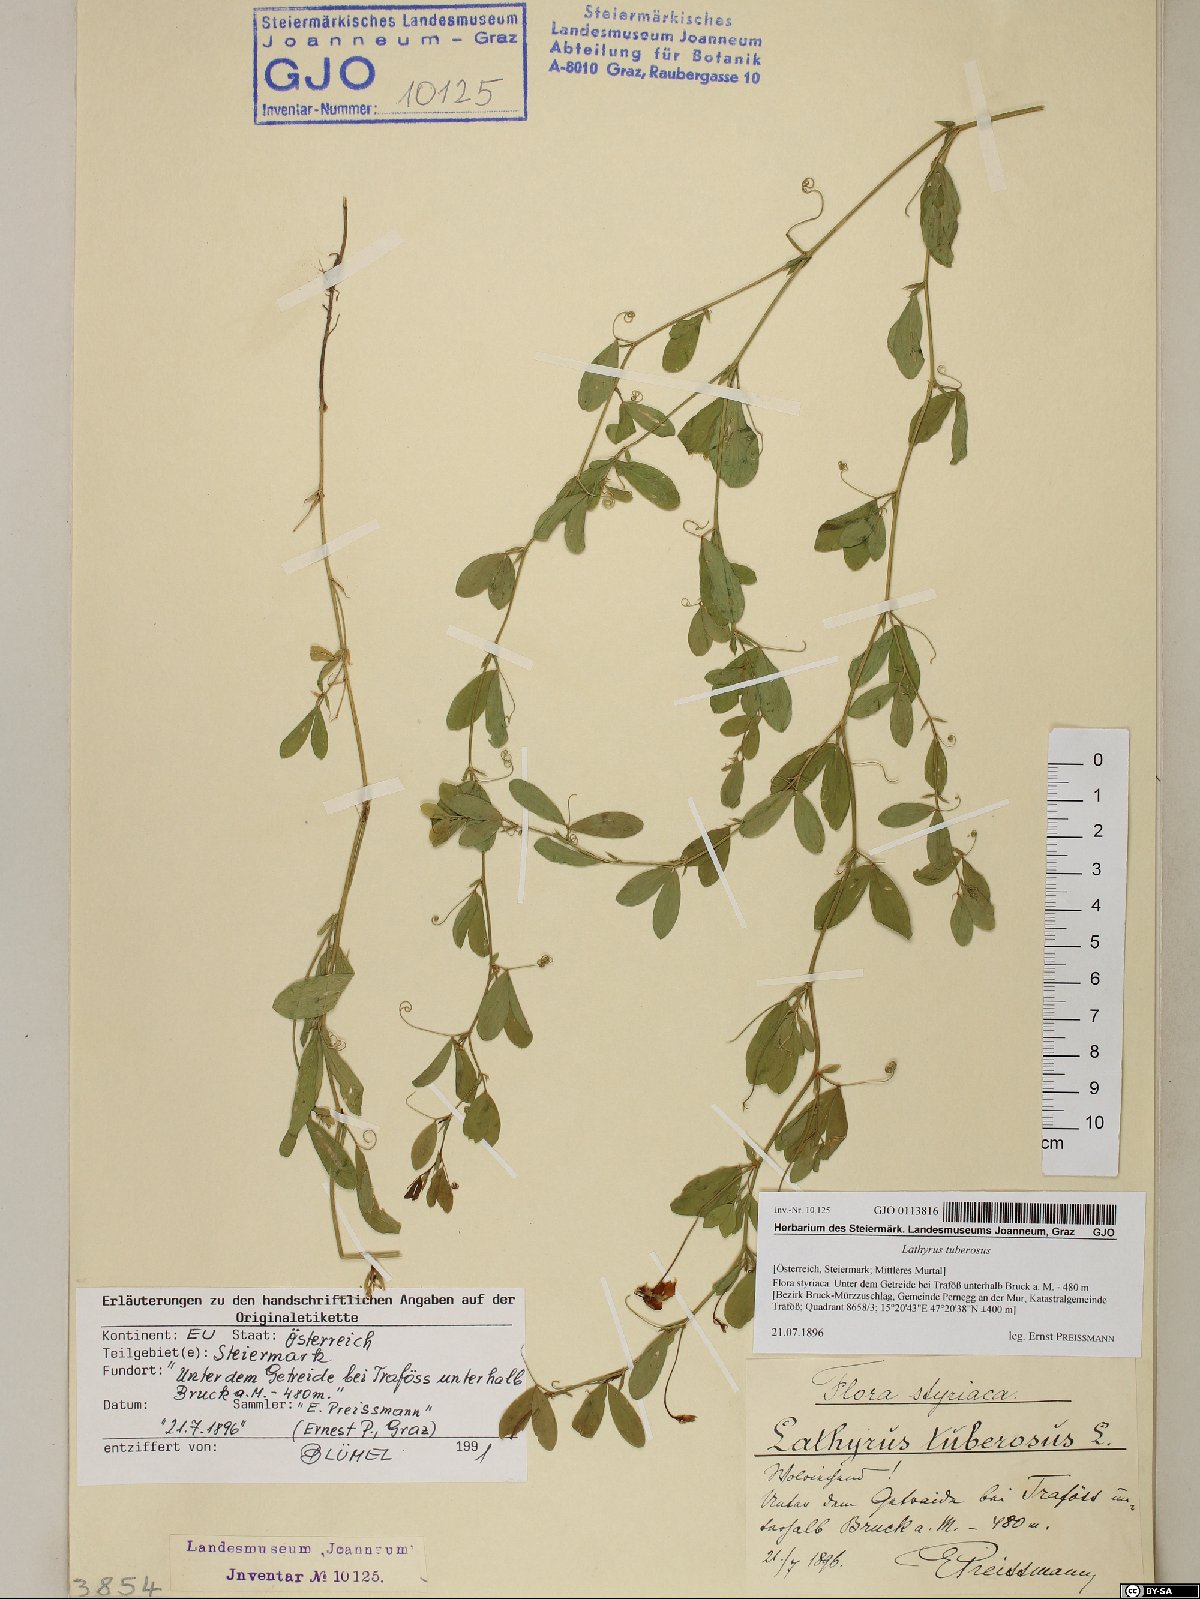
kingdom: Plantae
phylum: Tracheophyta
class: Magnoliopsida
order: Fabales
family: Fabaceae
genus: Lathyrus
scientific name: Lathyrus tuberosus
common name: Tuberous pea
